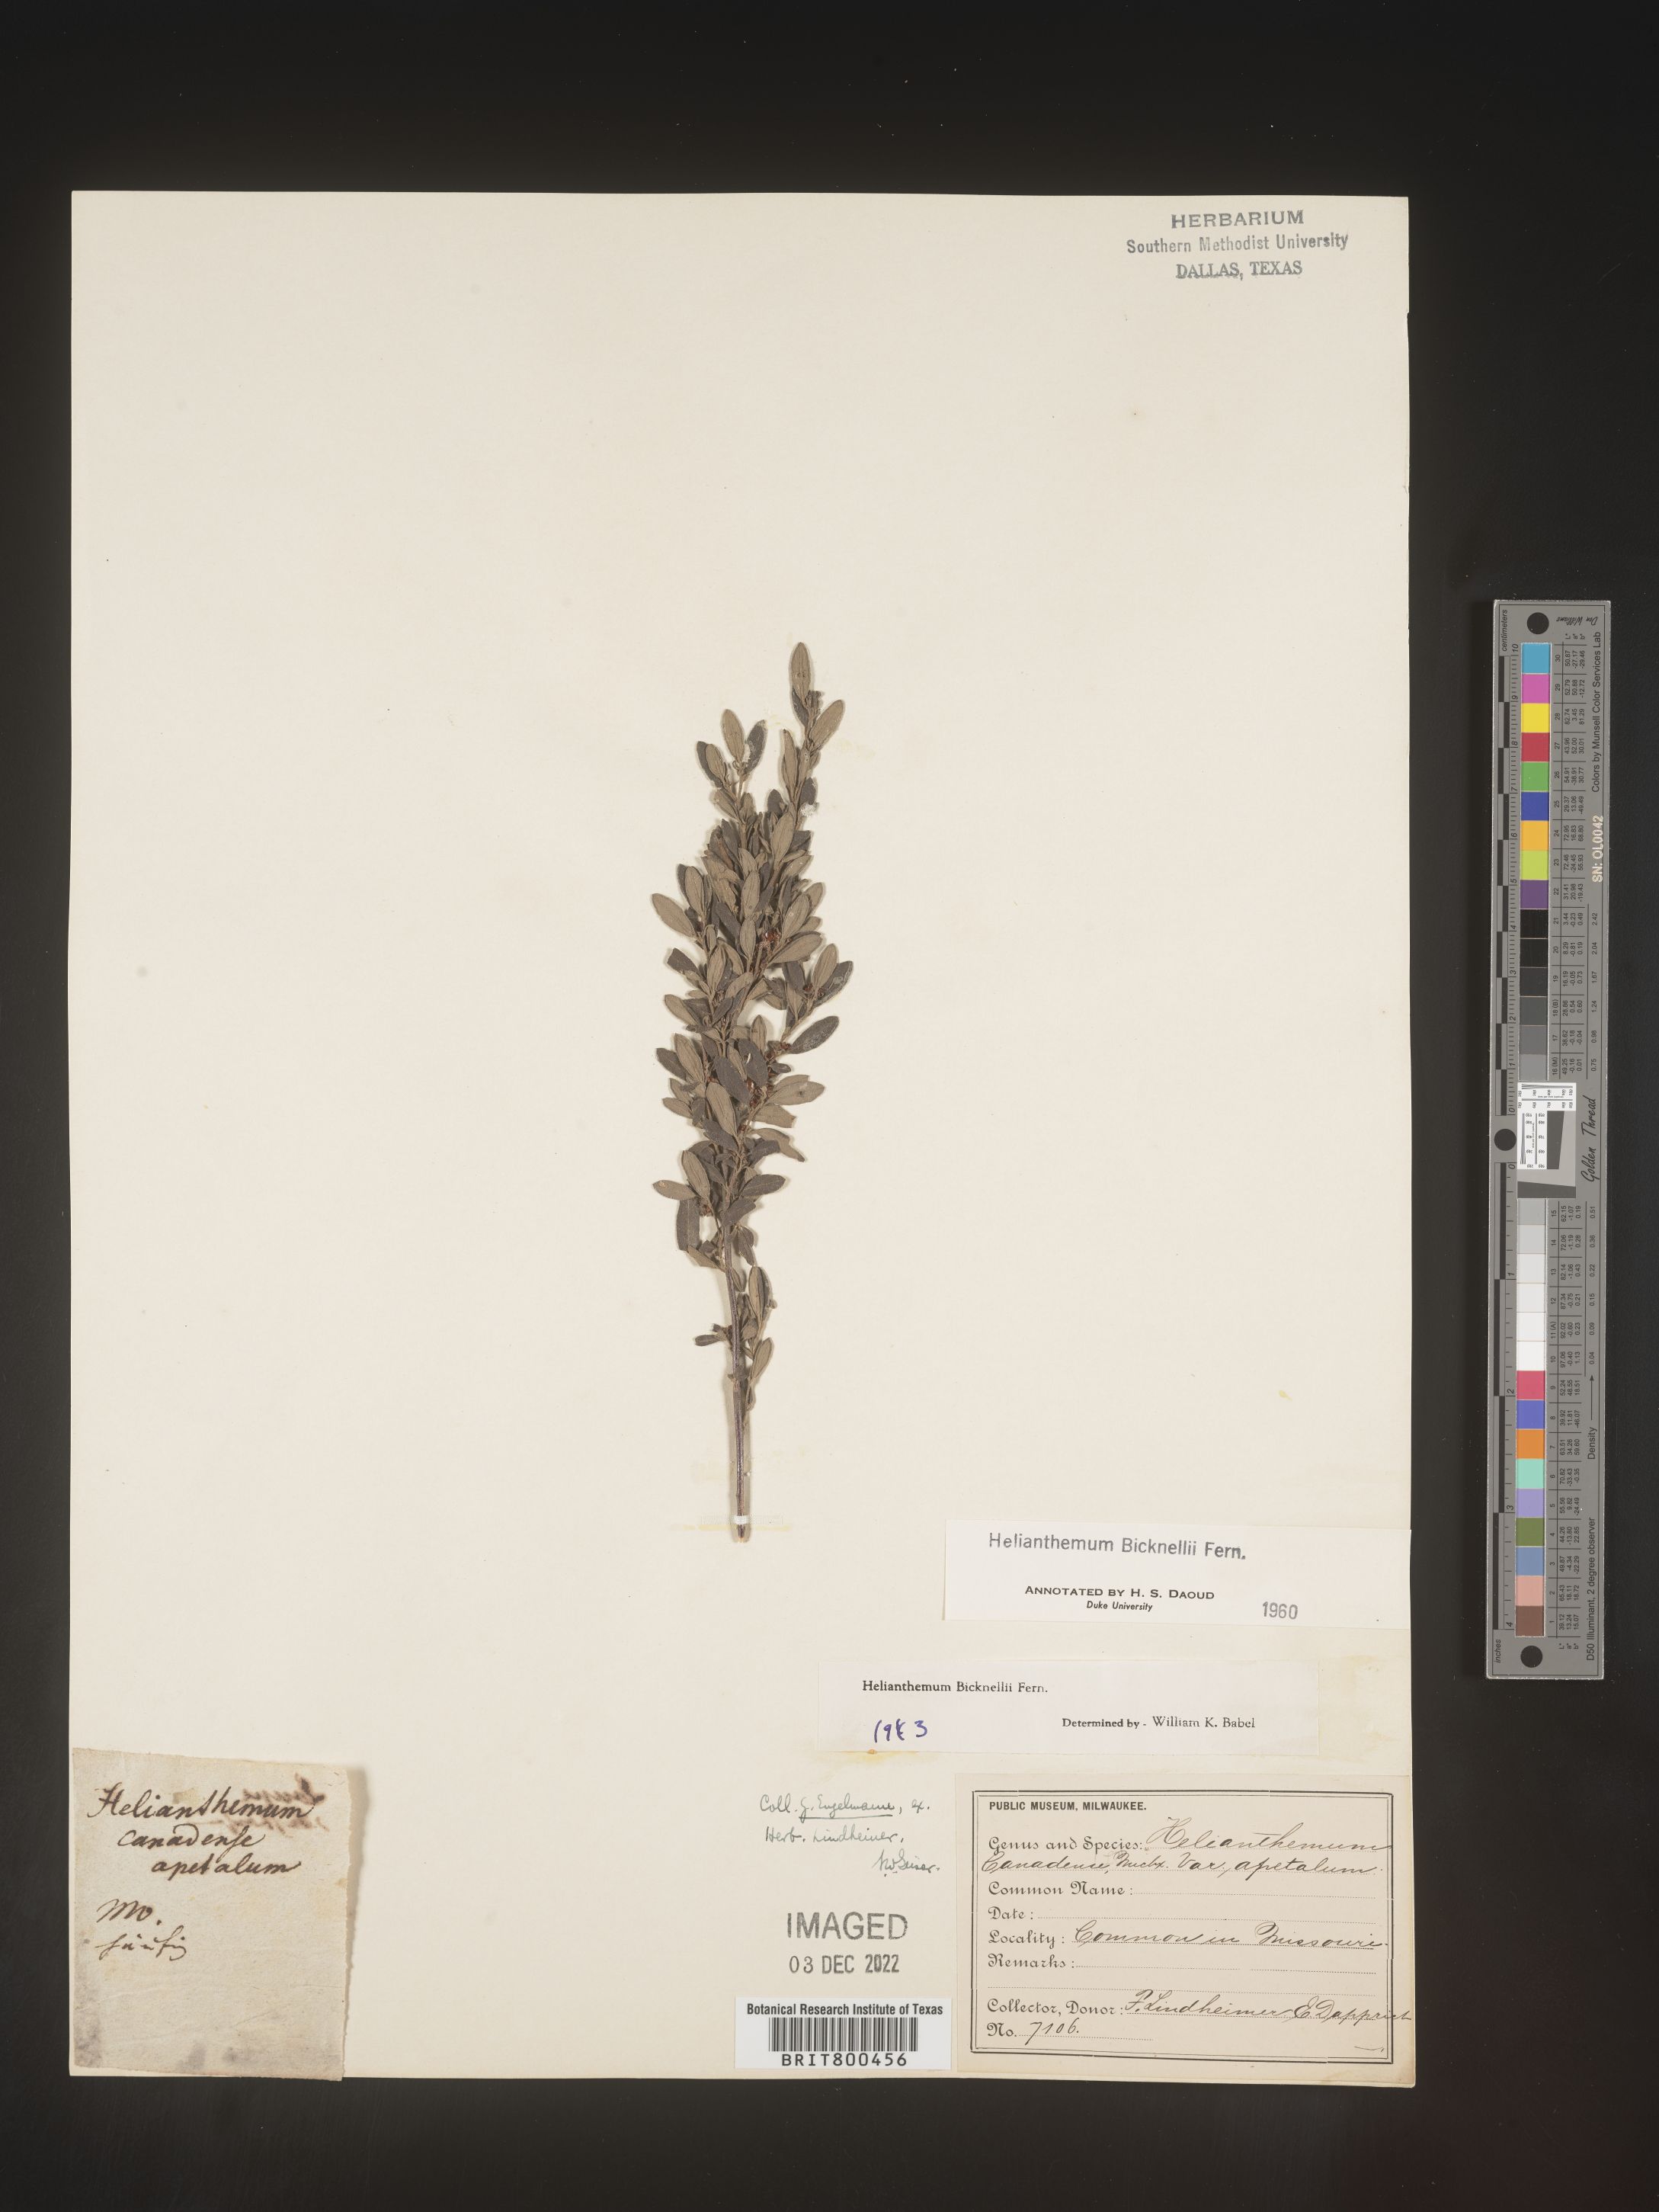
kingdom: Plantae
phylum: Tracheophyta
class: Magnoliopsida
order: Malvales
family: Cistaceae
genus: Helianthemum
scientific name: Helianthemum
